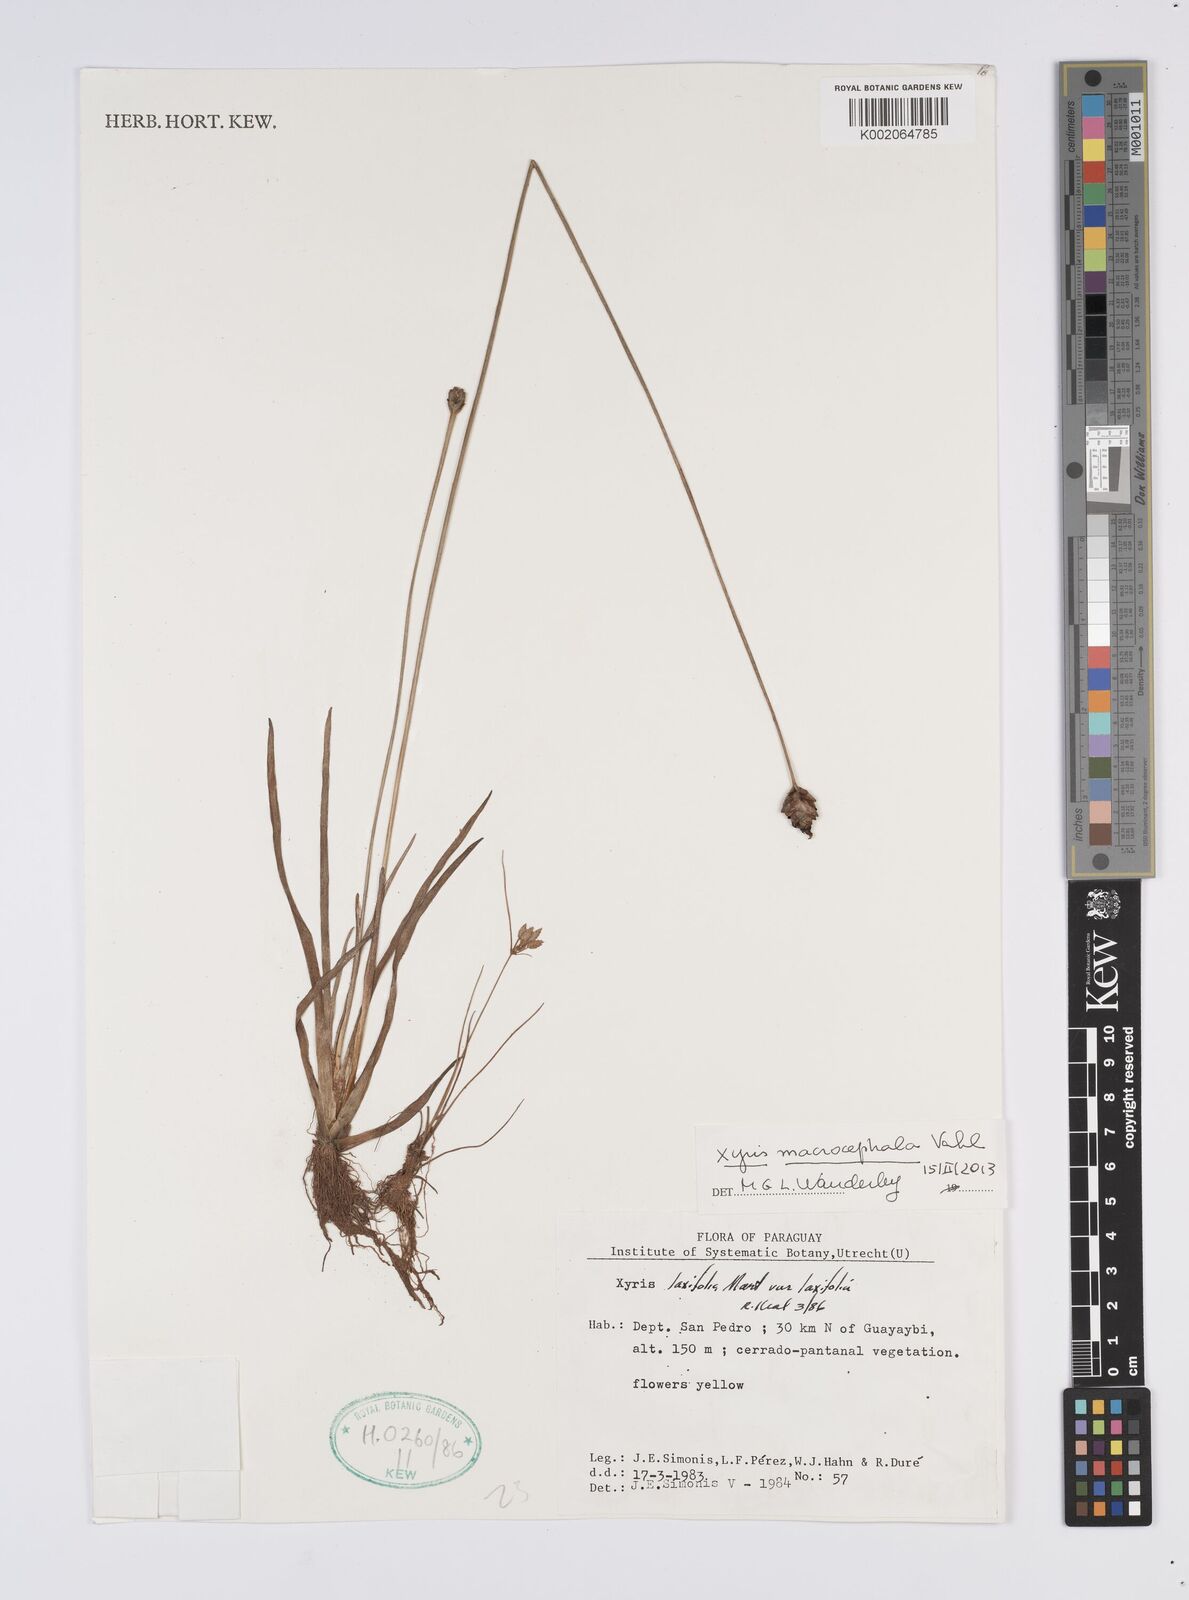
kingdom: Plantae
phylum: Tracheophyta
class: Liliopsida
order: Poales
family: Xyridaceae
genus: Xyris
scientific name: Xyris laxifolia
